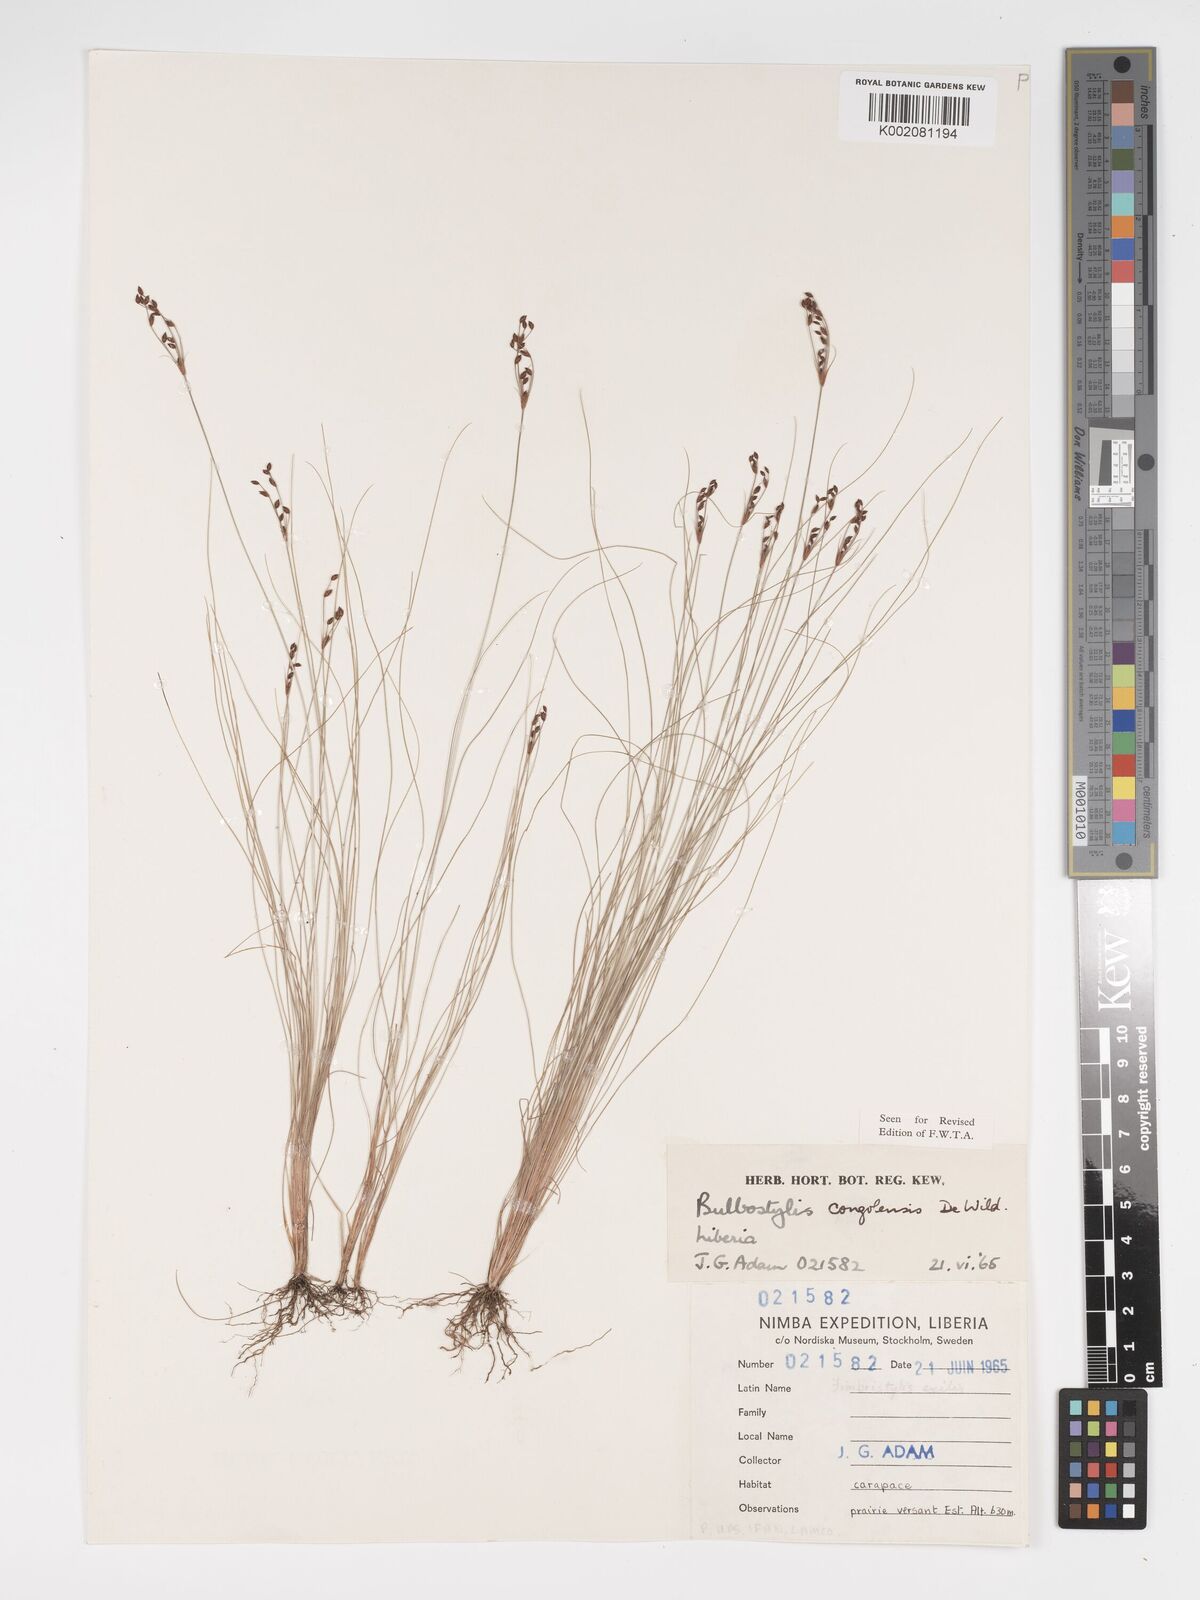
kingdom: Plantae
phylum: Tracheophyta
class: Liliopsida
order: Poales
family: Cyperaceae
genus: Bulbostylis
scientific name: Bulbostylis congolensis
